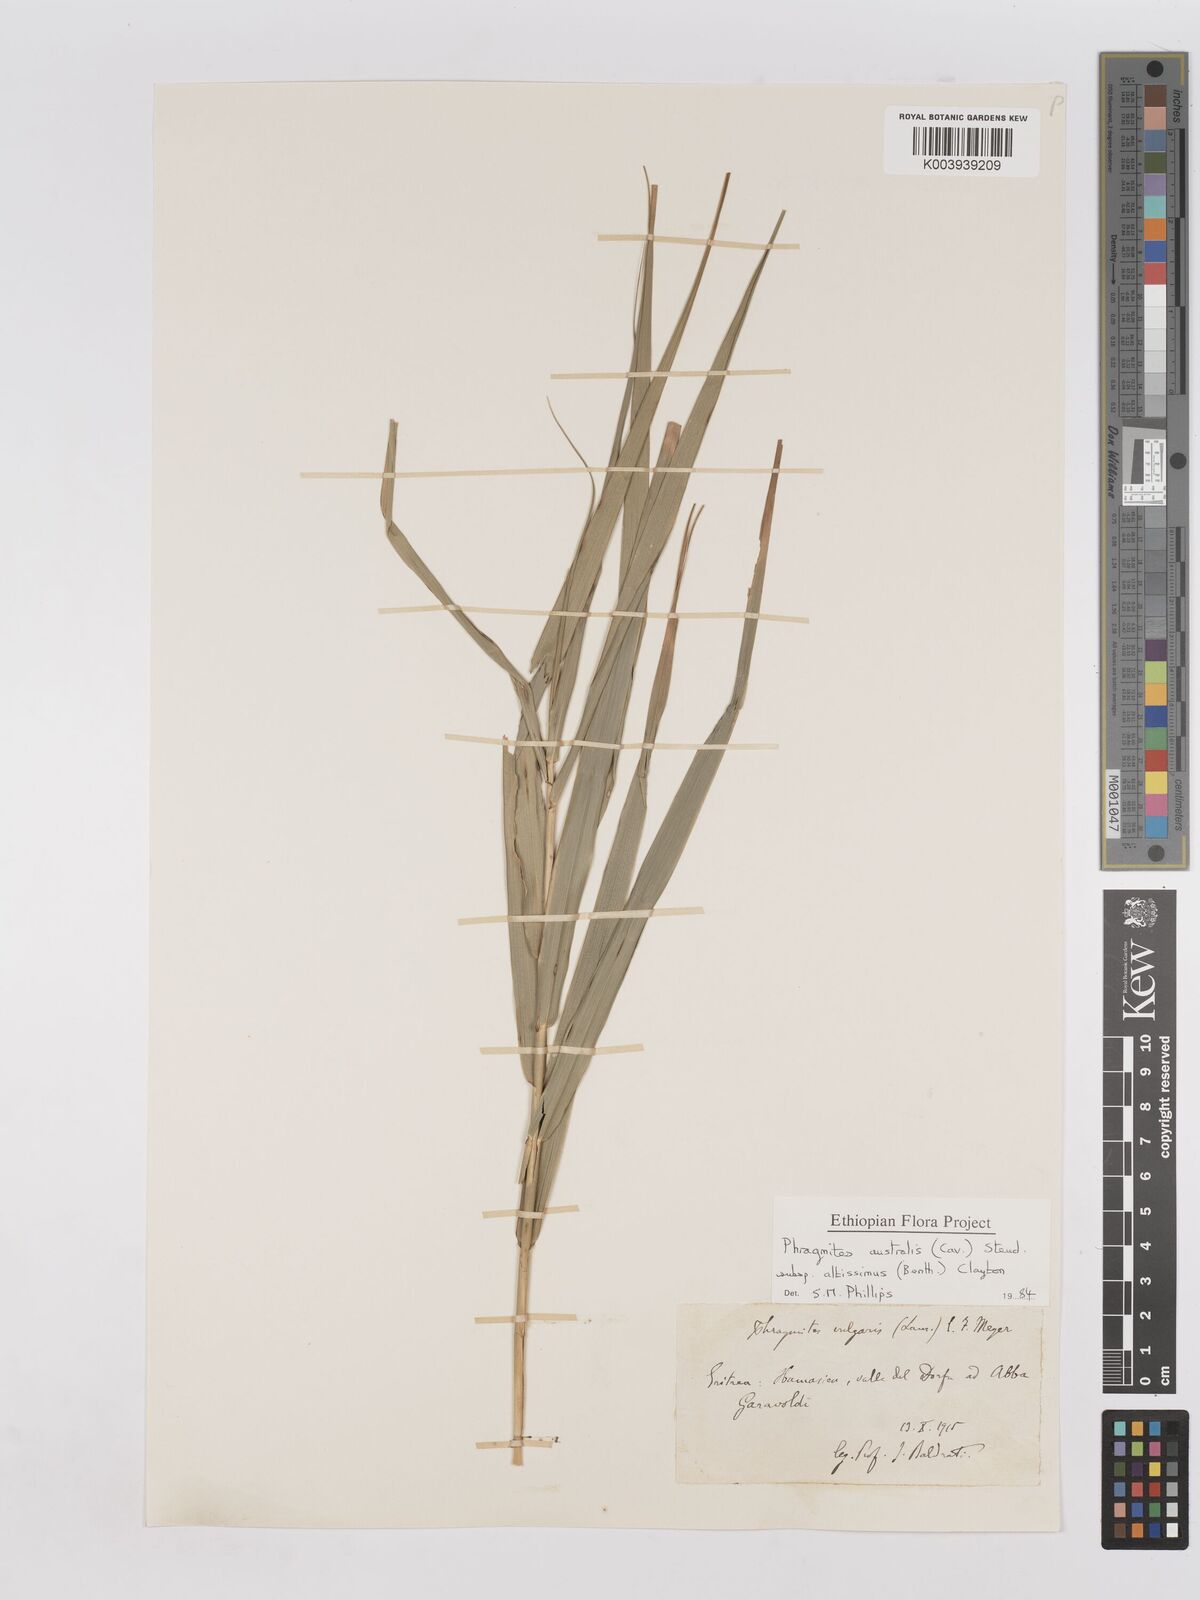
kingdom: Plantae
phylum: Tracheophyta
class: Liliopsida
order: Poales
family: Poaceae
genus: Phragmites
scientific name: Phragmites australis
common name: Common reed
